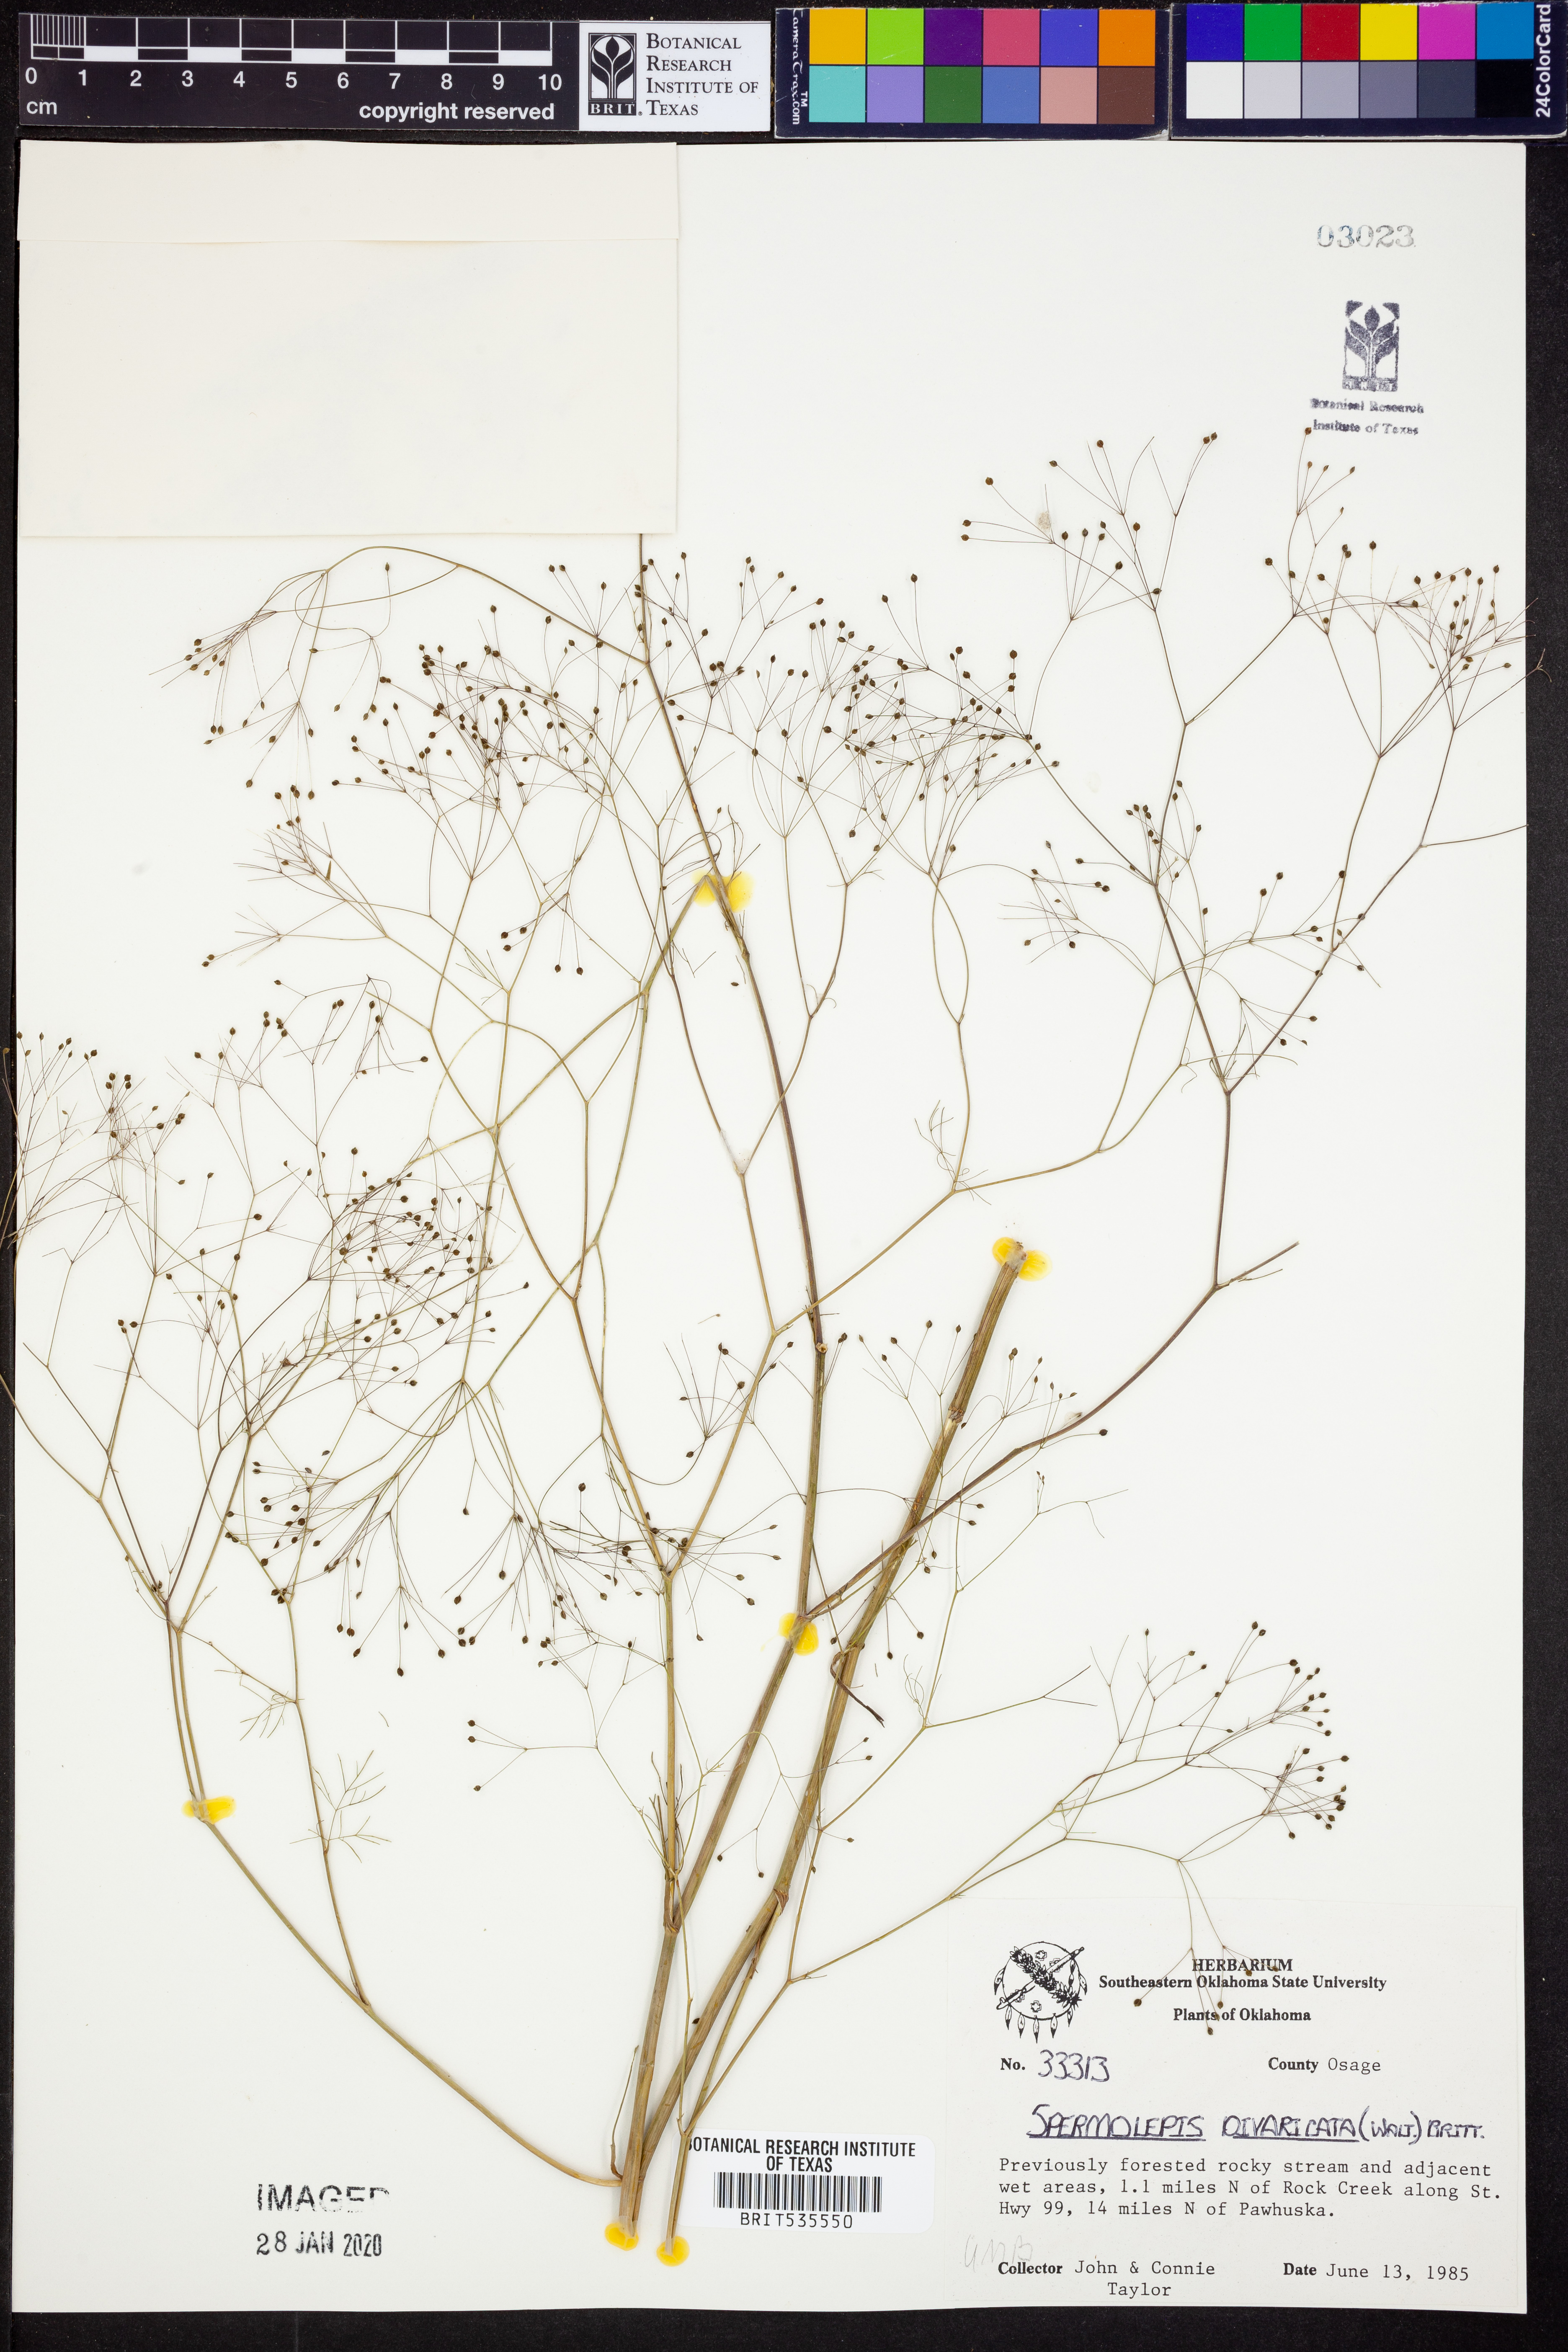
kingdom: Plantae
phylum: Tracheophyta
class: Magnoliopsida
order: Apiales
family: Apiaceae
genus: Spermolepis
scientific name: Spermolepis divaricata
